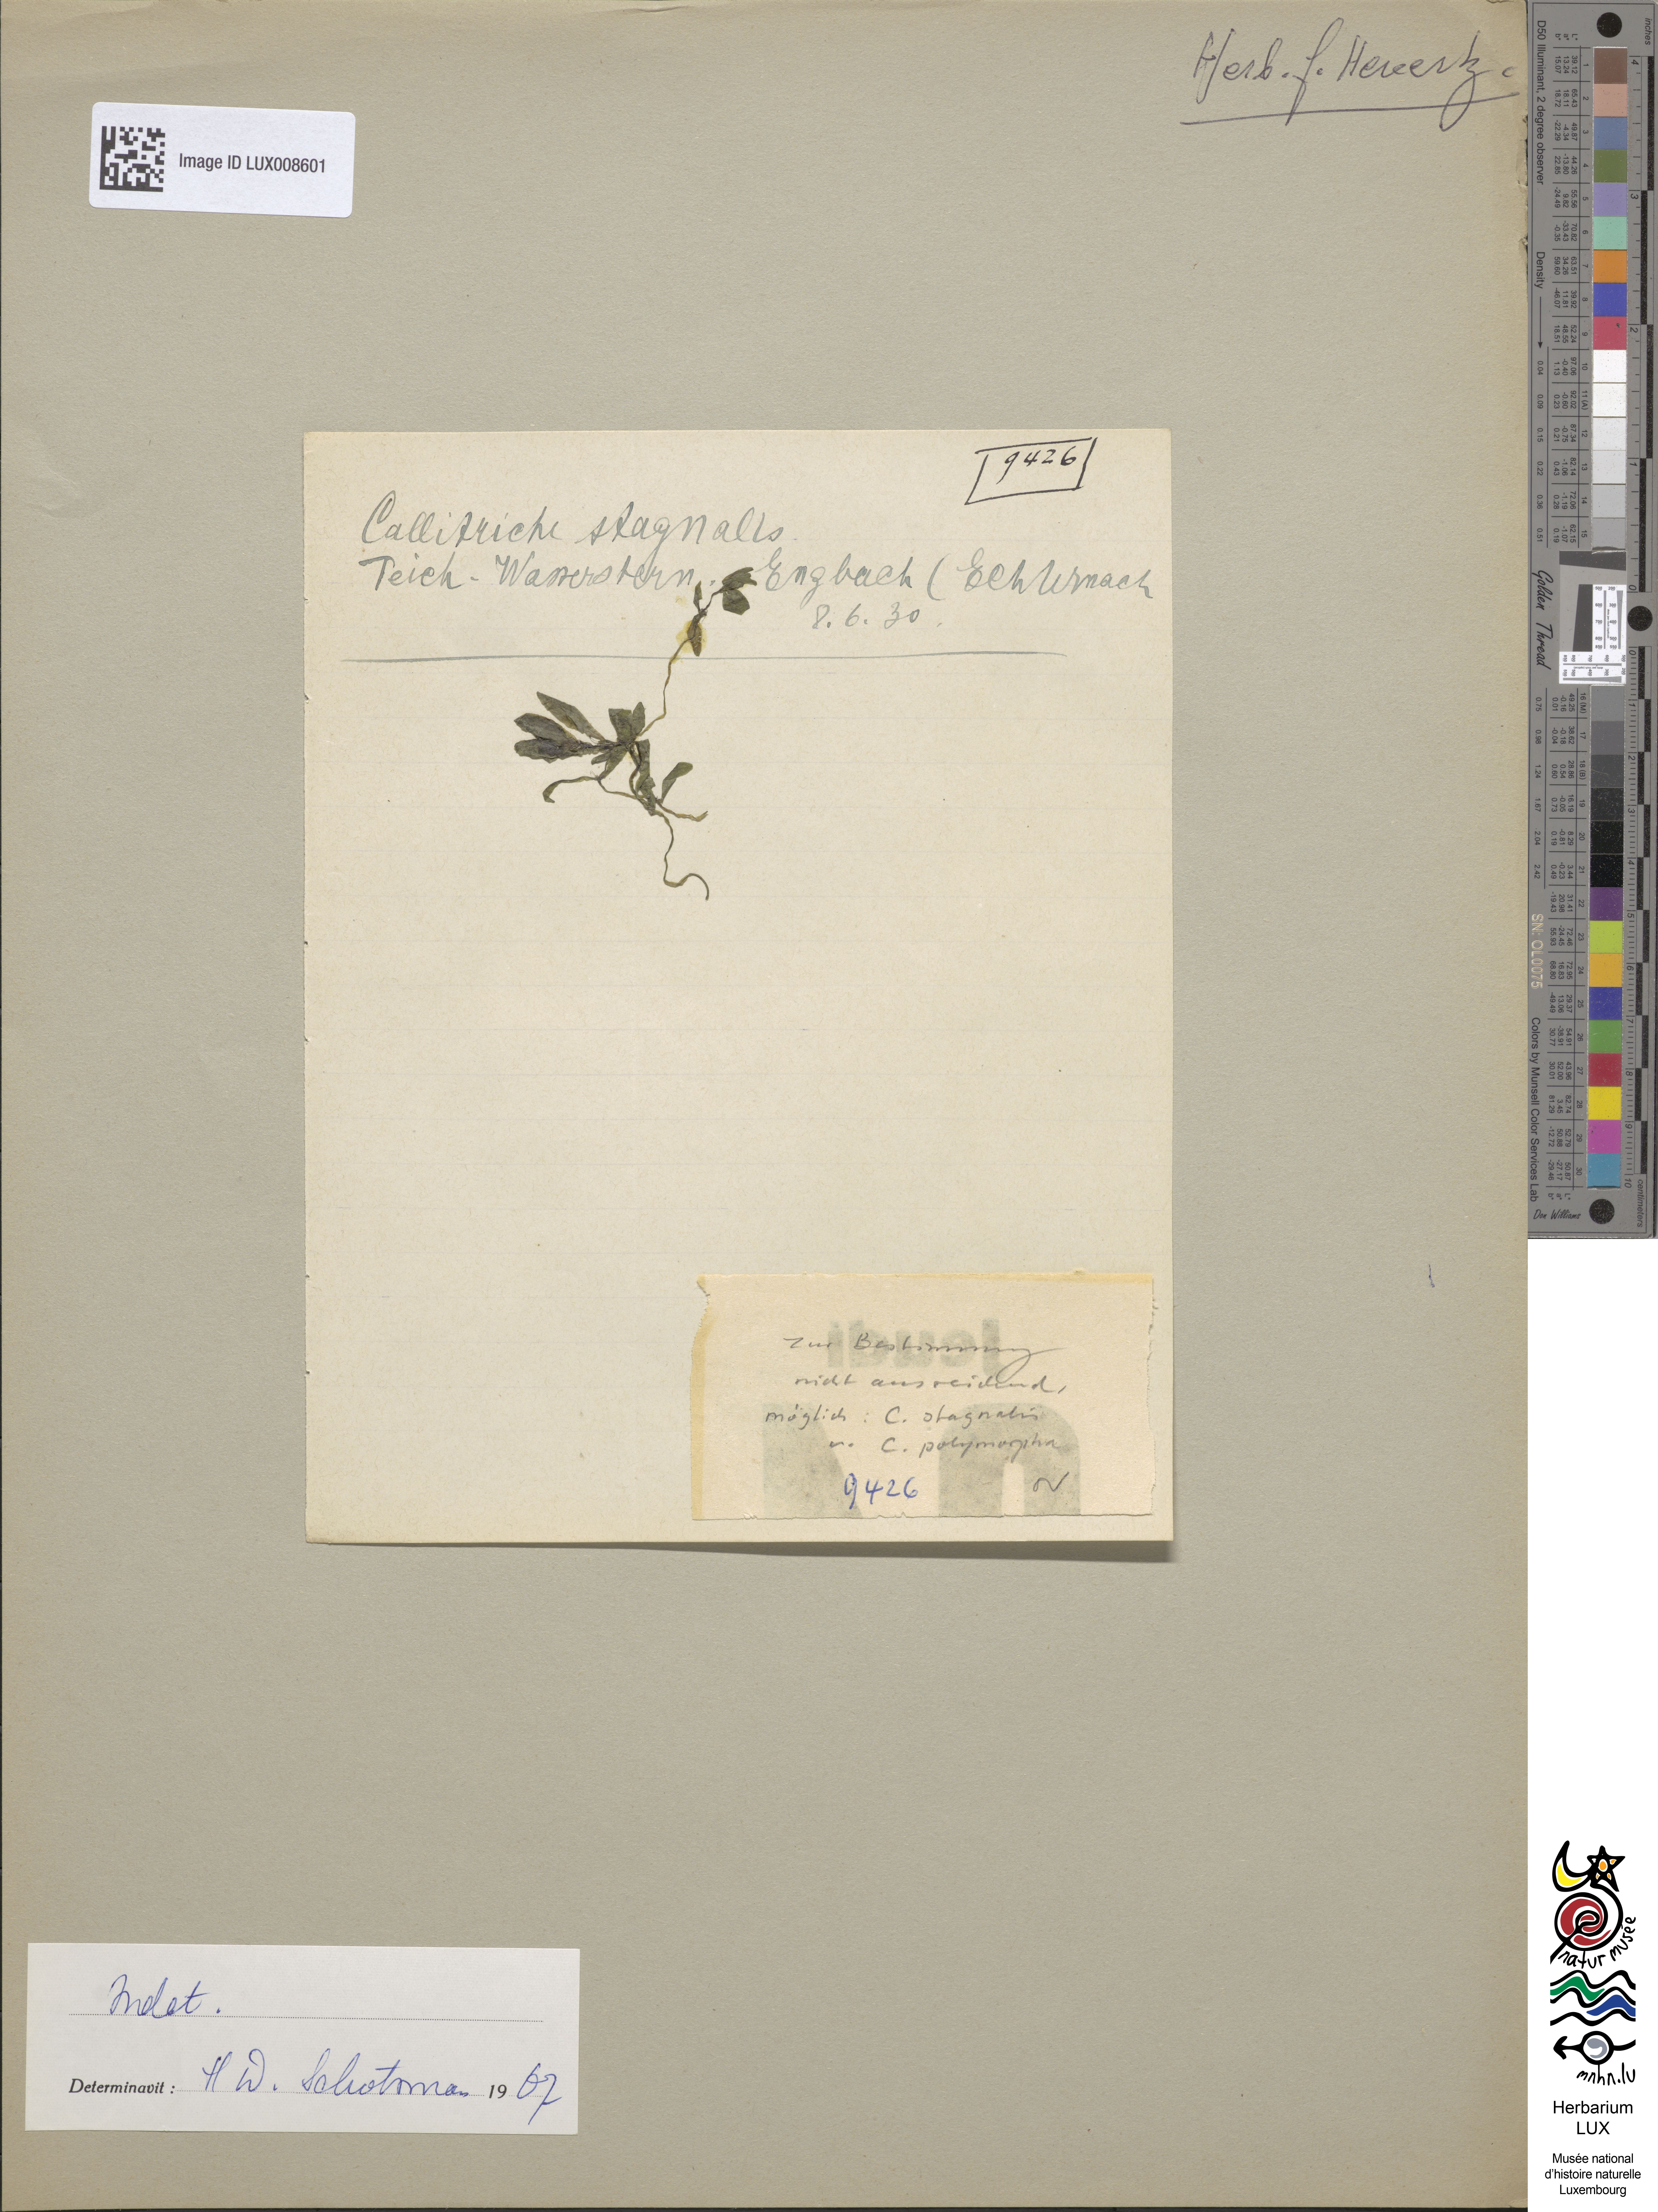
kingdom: Plantae
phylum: Tracheophyta
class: Magnoliopsida
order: Lamiales
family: Plantaginaceae
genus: Callitriche
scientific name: Callitriche stagnalis
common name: Common water-starwort
